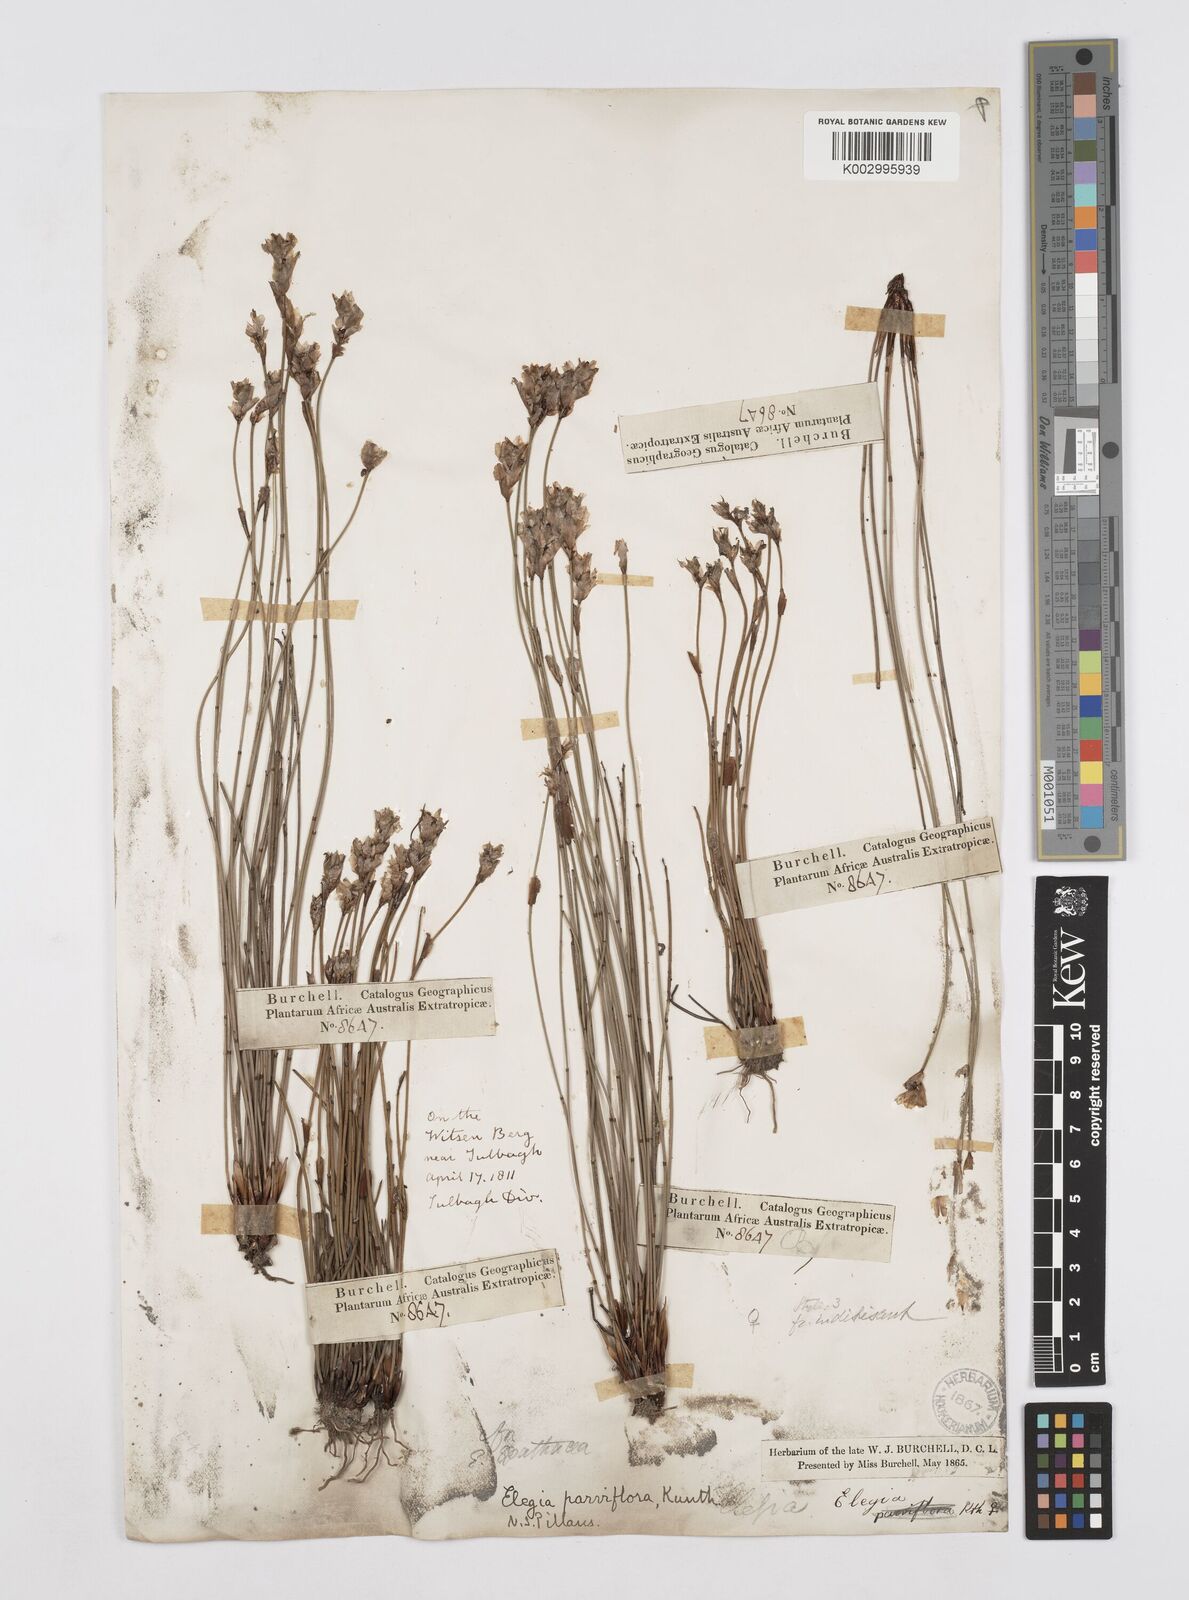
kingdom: Plantae
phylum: Tracheophyta
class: Liliopsida
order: Poales
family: Restionaceae
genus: Cannomois
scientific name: Cannomois parviflora
